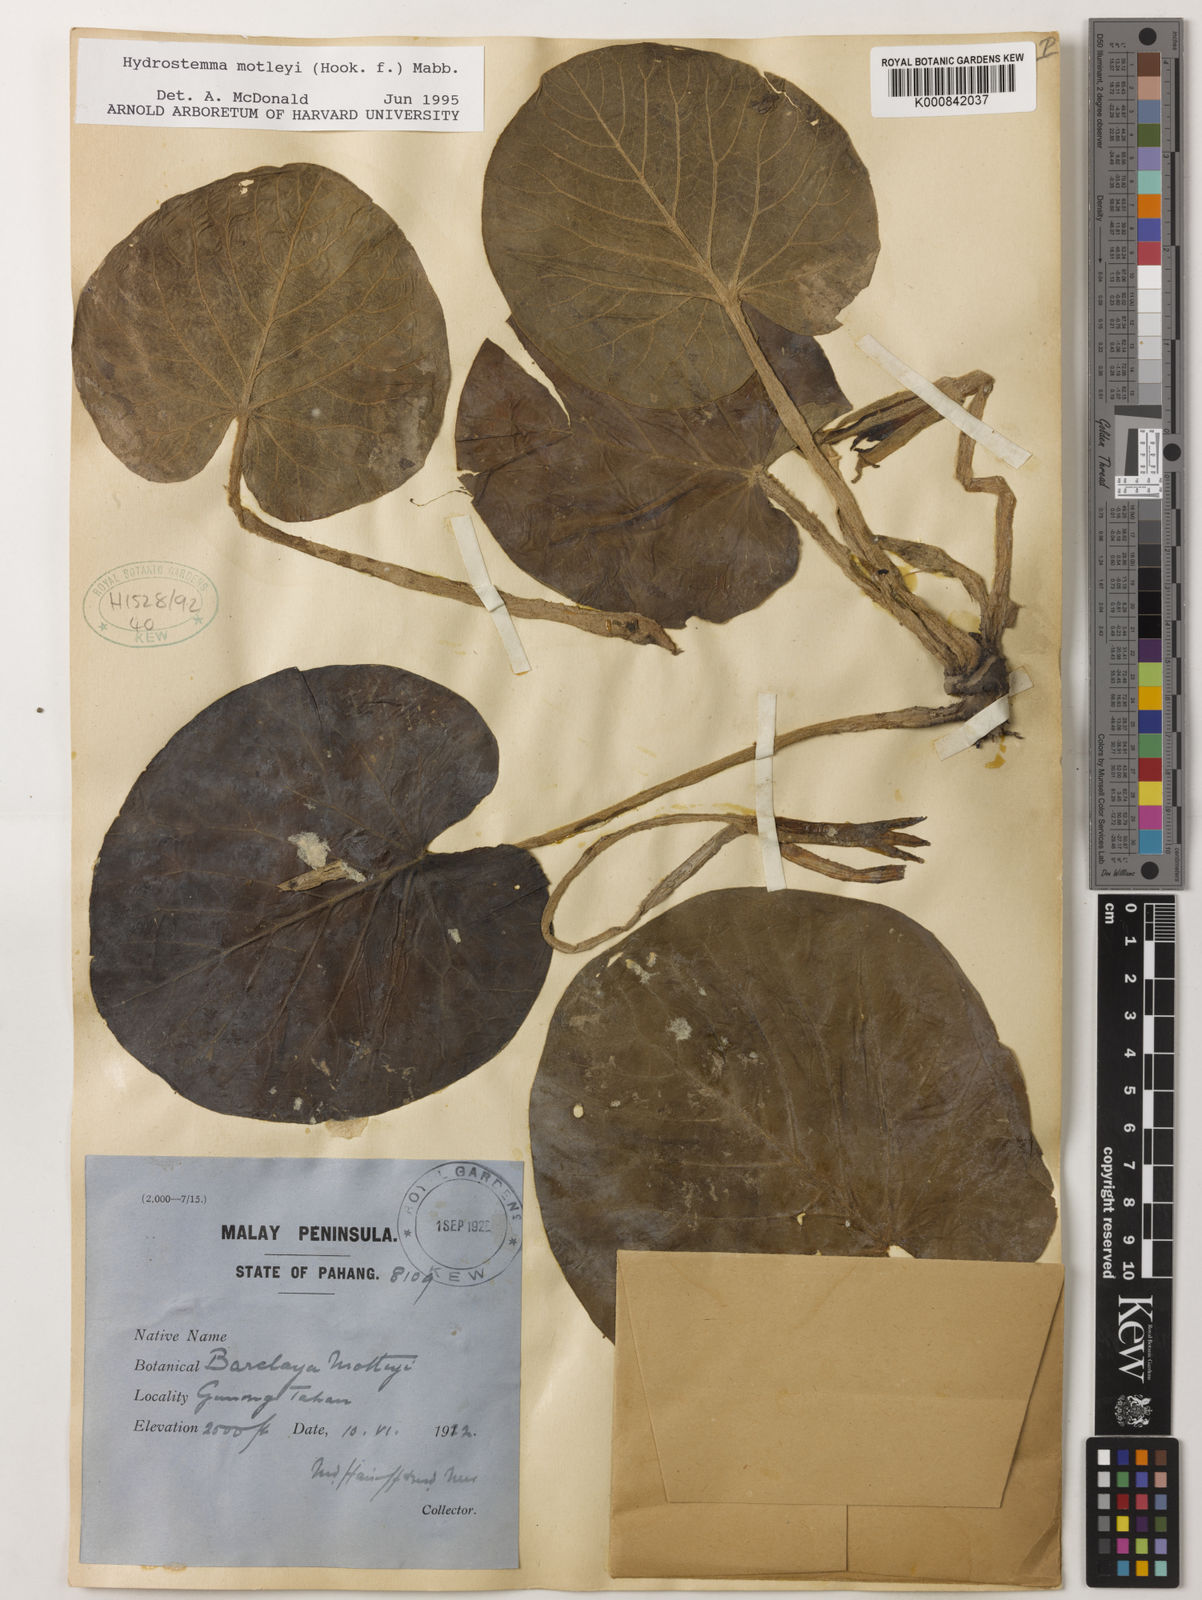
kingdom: Plantae
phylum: Tracheophyta
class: Magnoliopsida
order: Nymphaeales
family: Nymphaeaceae
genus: Barclaya
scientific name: Barclaya motleyi
